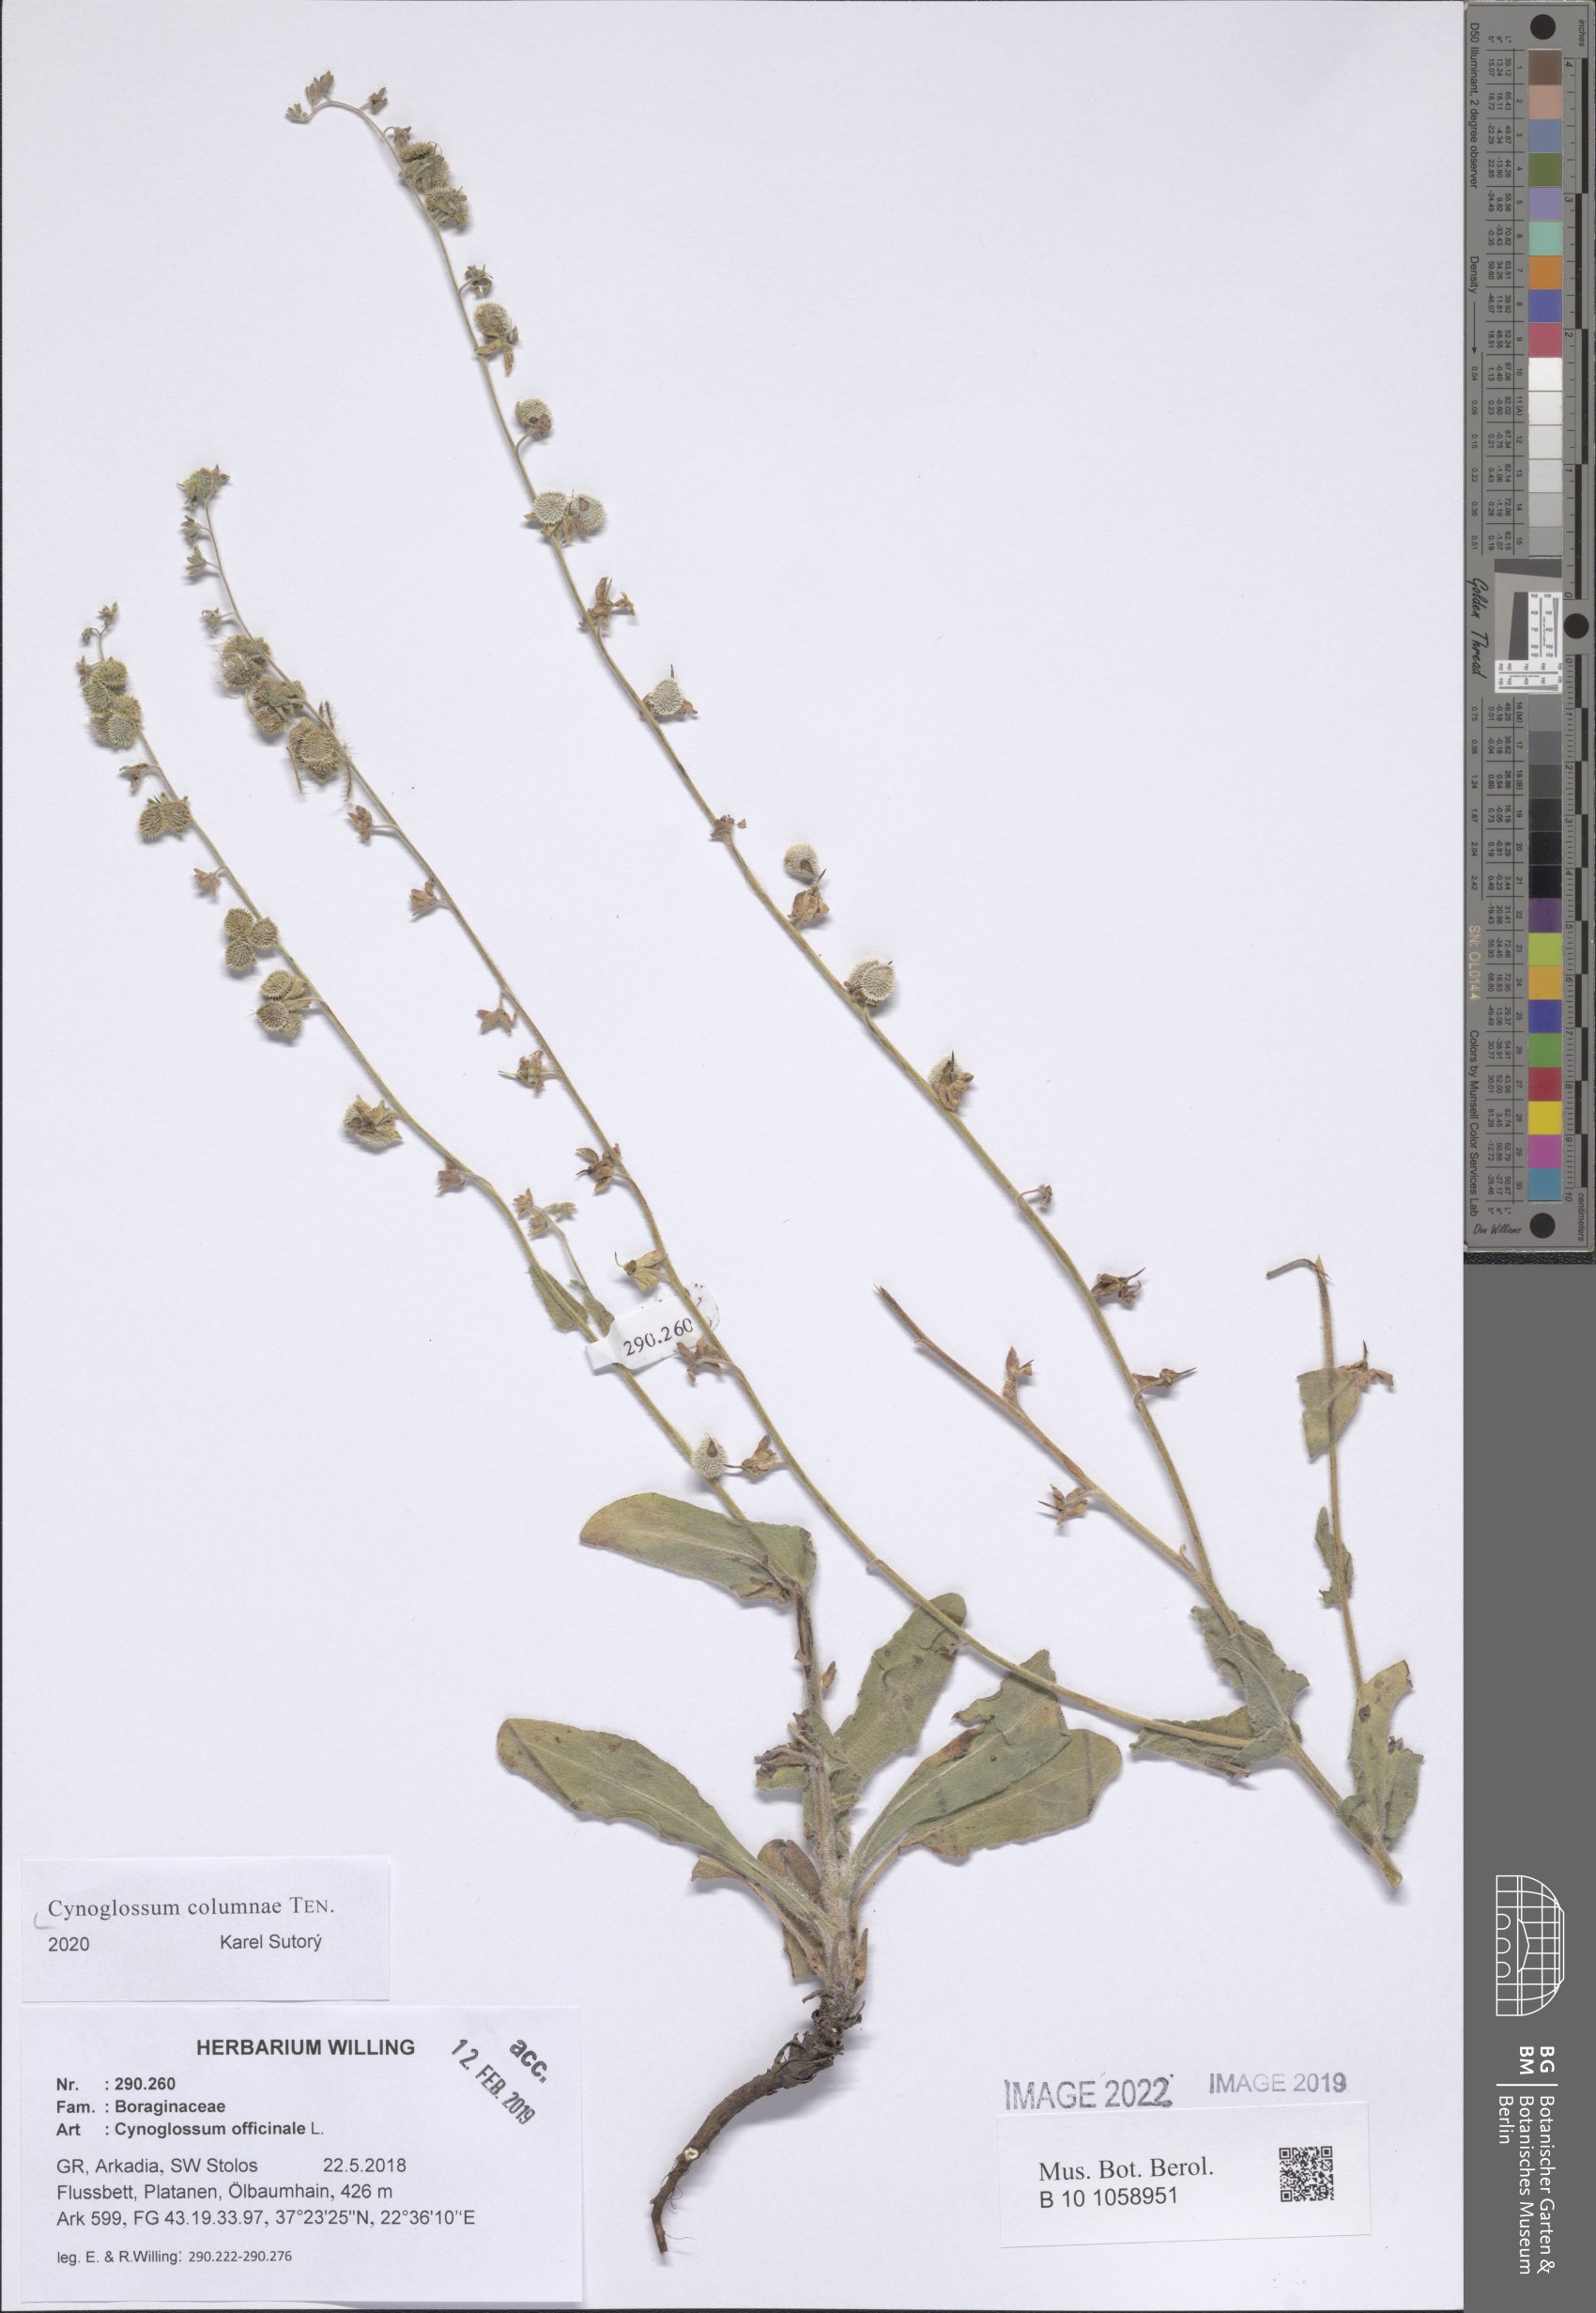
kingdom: Plantae
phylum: Tracheophyta
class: Magnoliopsida
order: Boraginales
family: Boraginaceae
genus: Rindera
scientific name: Rindera columnae
